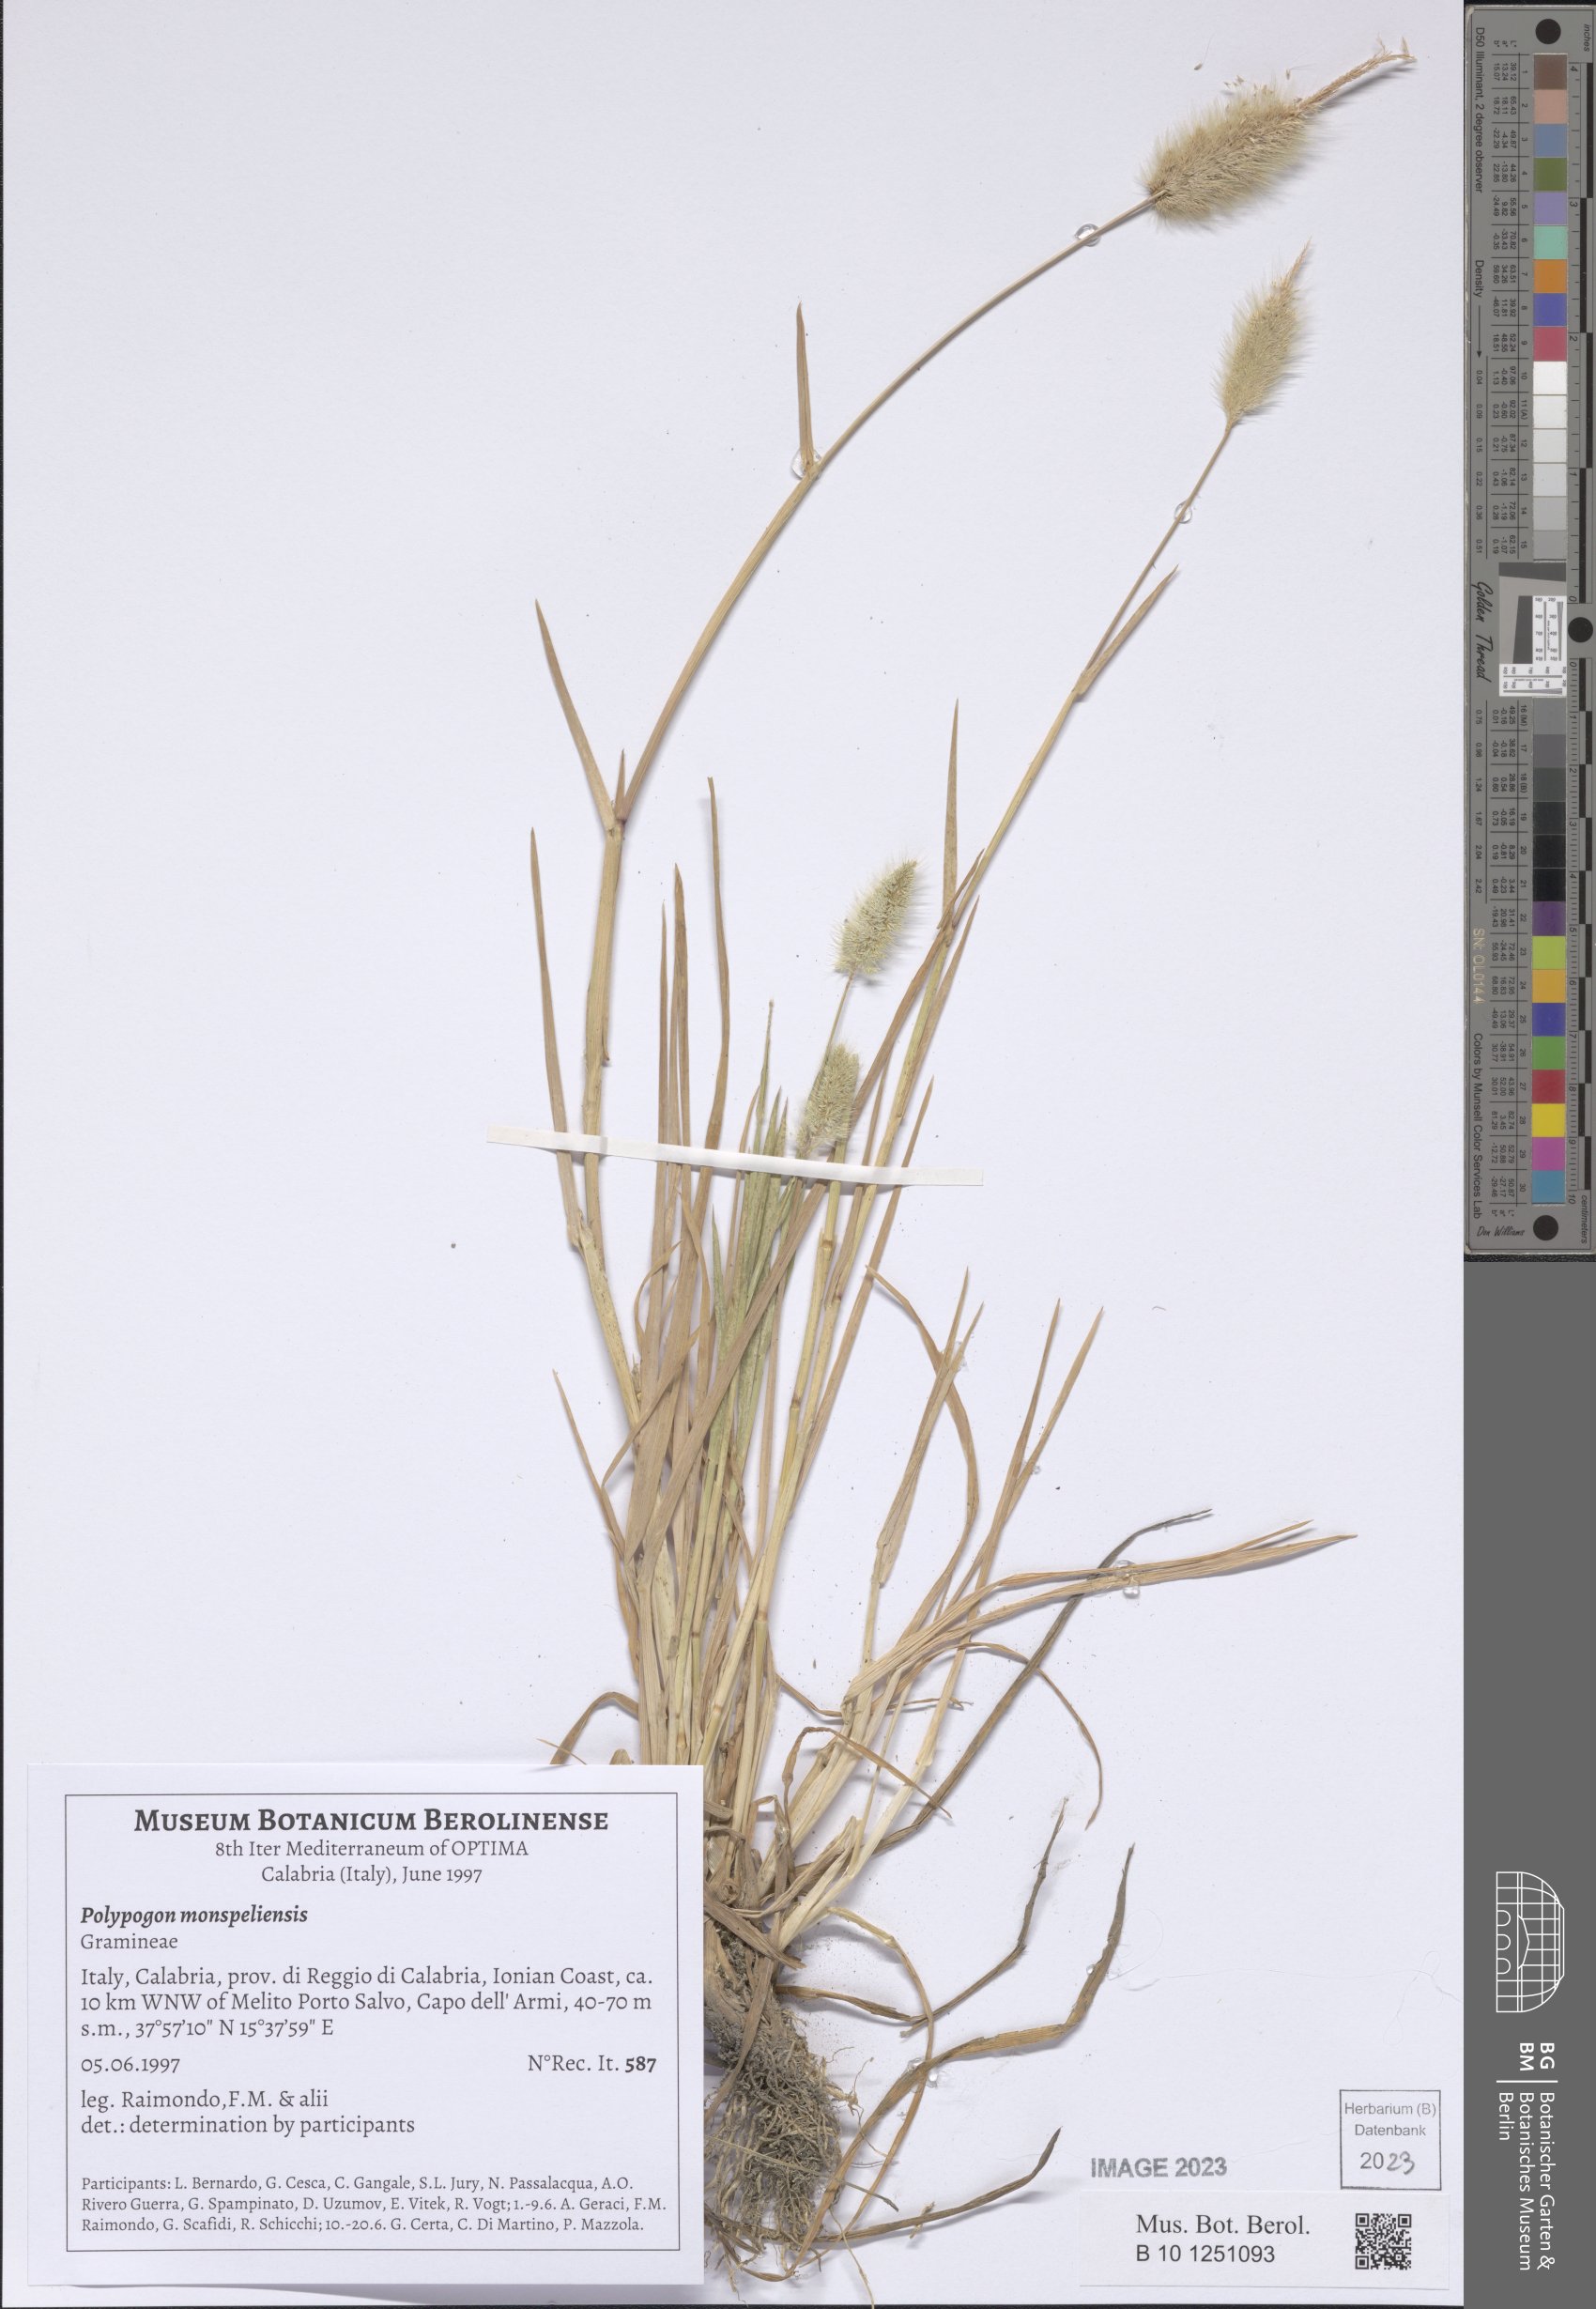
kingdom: Plantae
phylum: Tracheophyta
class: Liliopsida
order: Poales
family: Poaceae
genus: Polypogon
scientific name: Polypogon monspeliensis
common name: Annual rabbitsfoot grass
